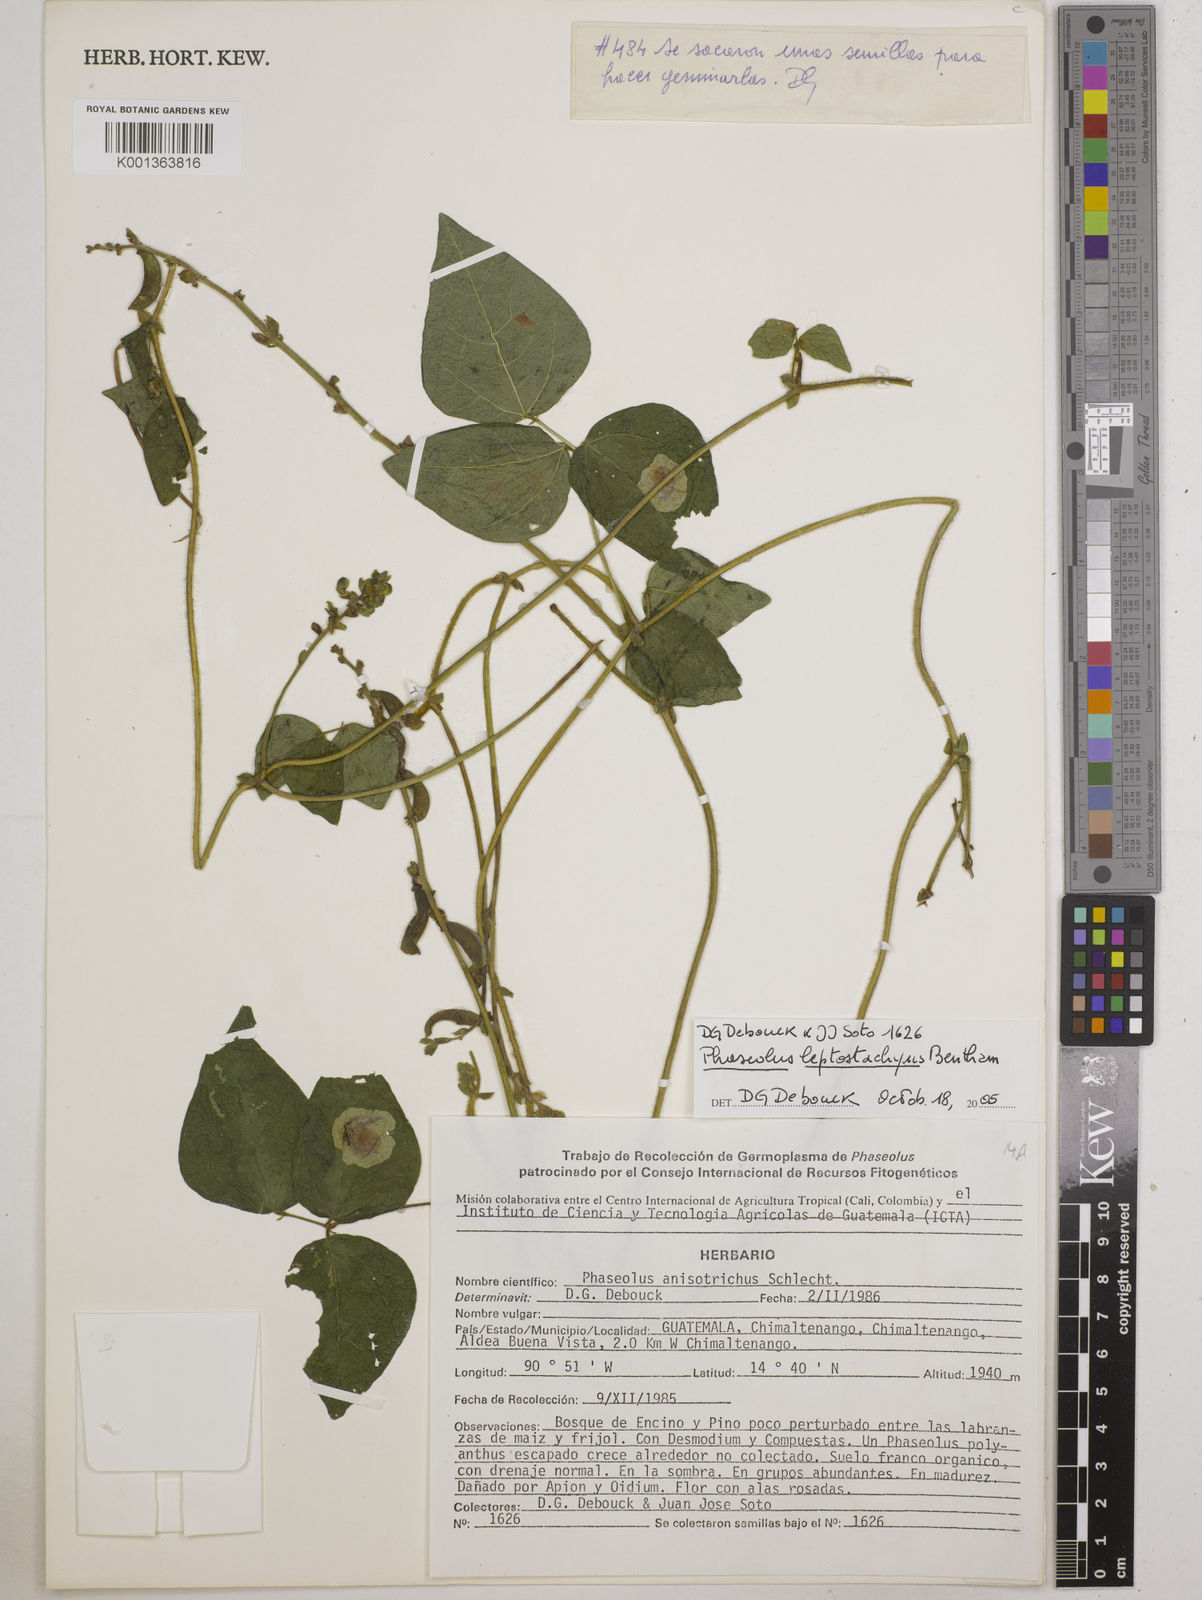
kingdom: Plantae
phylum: Tracheophyta
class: Magnoliopsida
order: Fabales
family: Fabaceae
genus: Phaseolus
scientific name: Phaseolus
